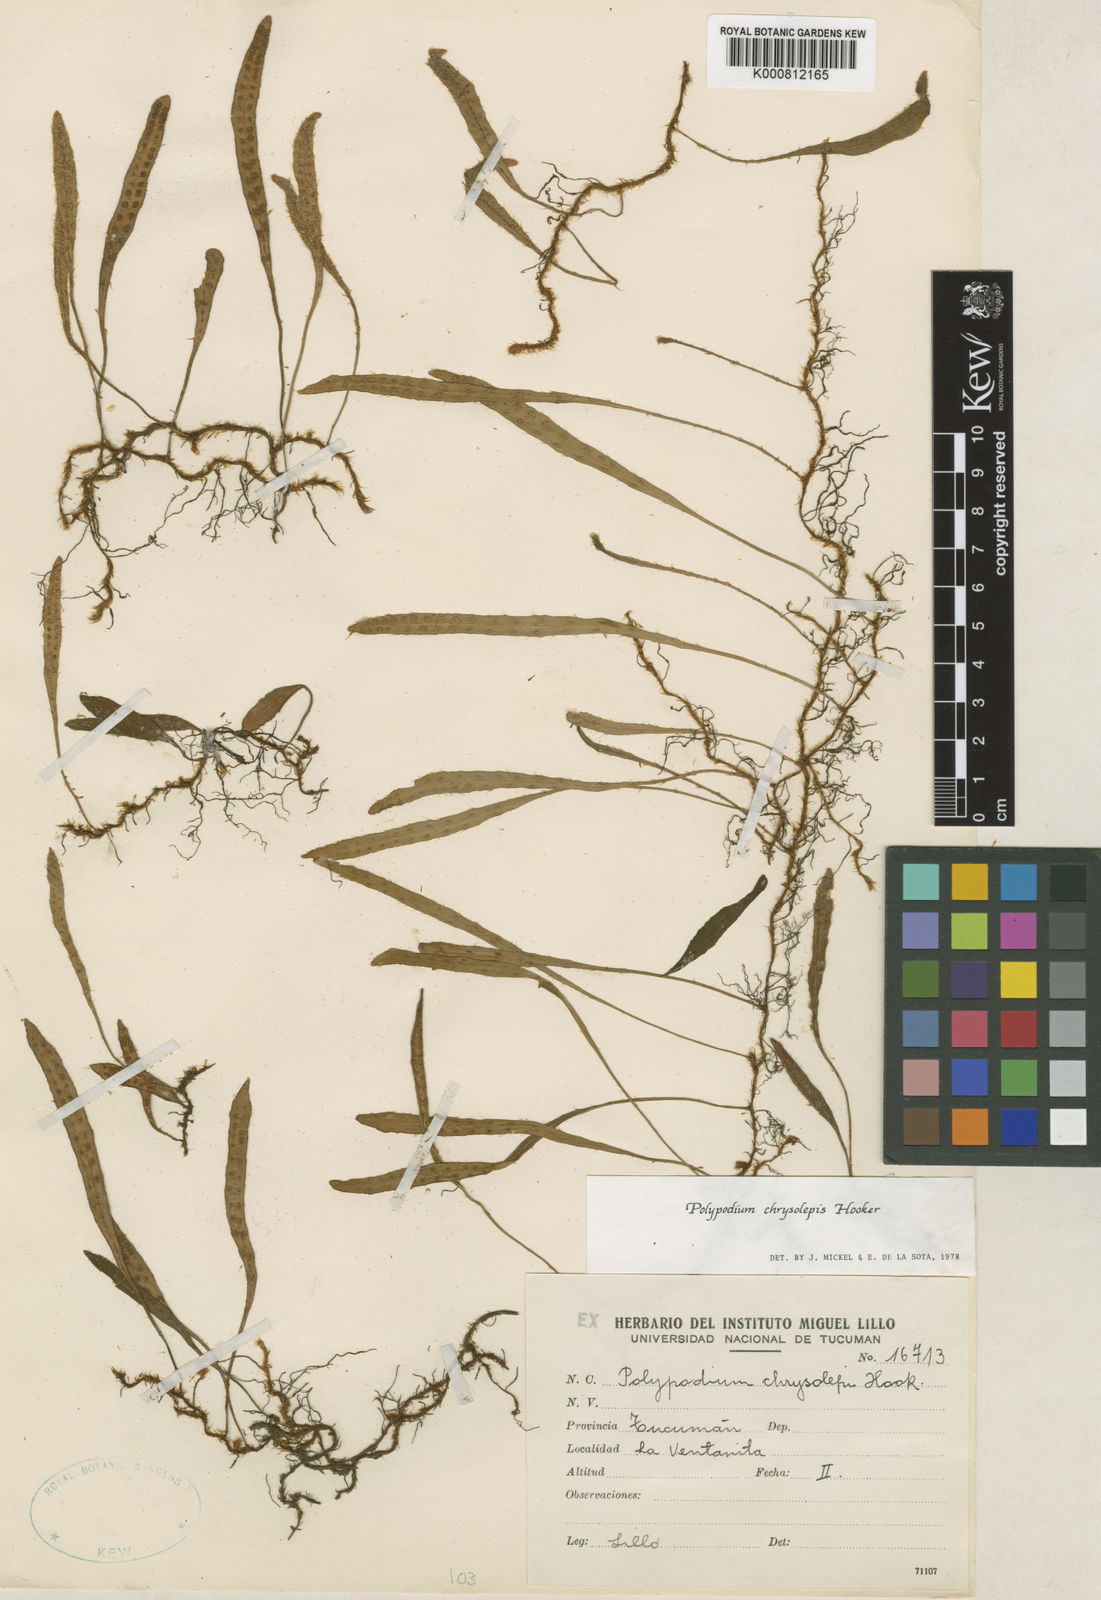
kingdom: Plantae
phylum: Tracheophyta
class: Polypodiopsida
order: Polypodiales
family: Polypodiaceae
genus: Adetogramma
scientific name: Adetogramma chrysolepis
